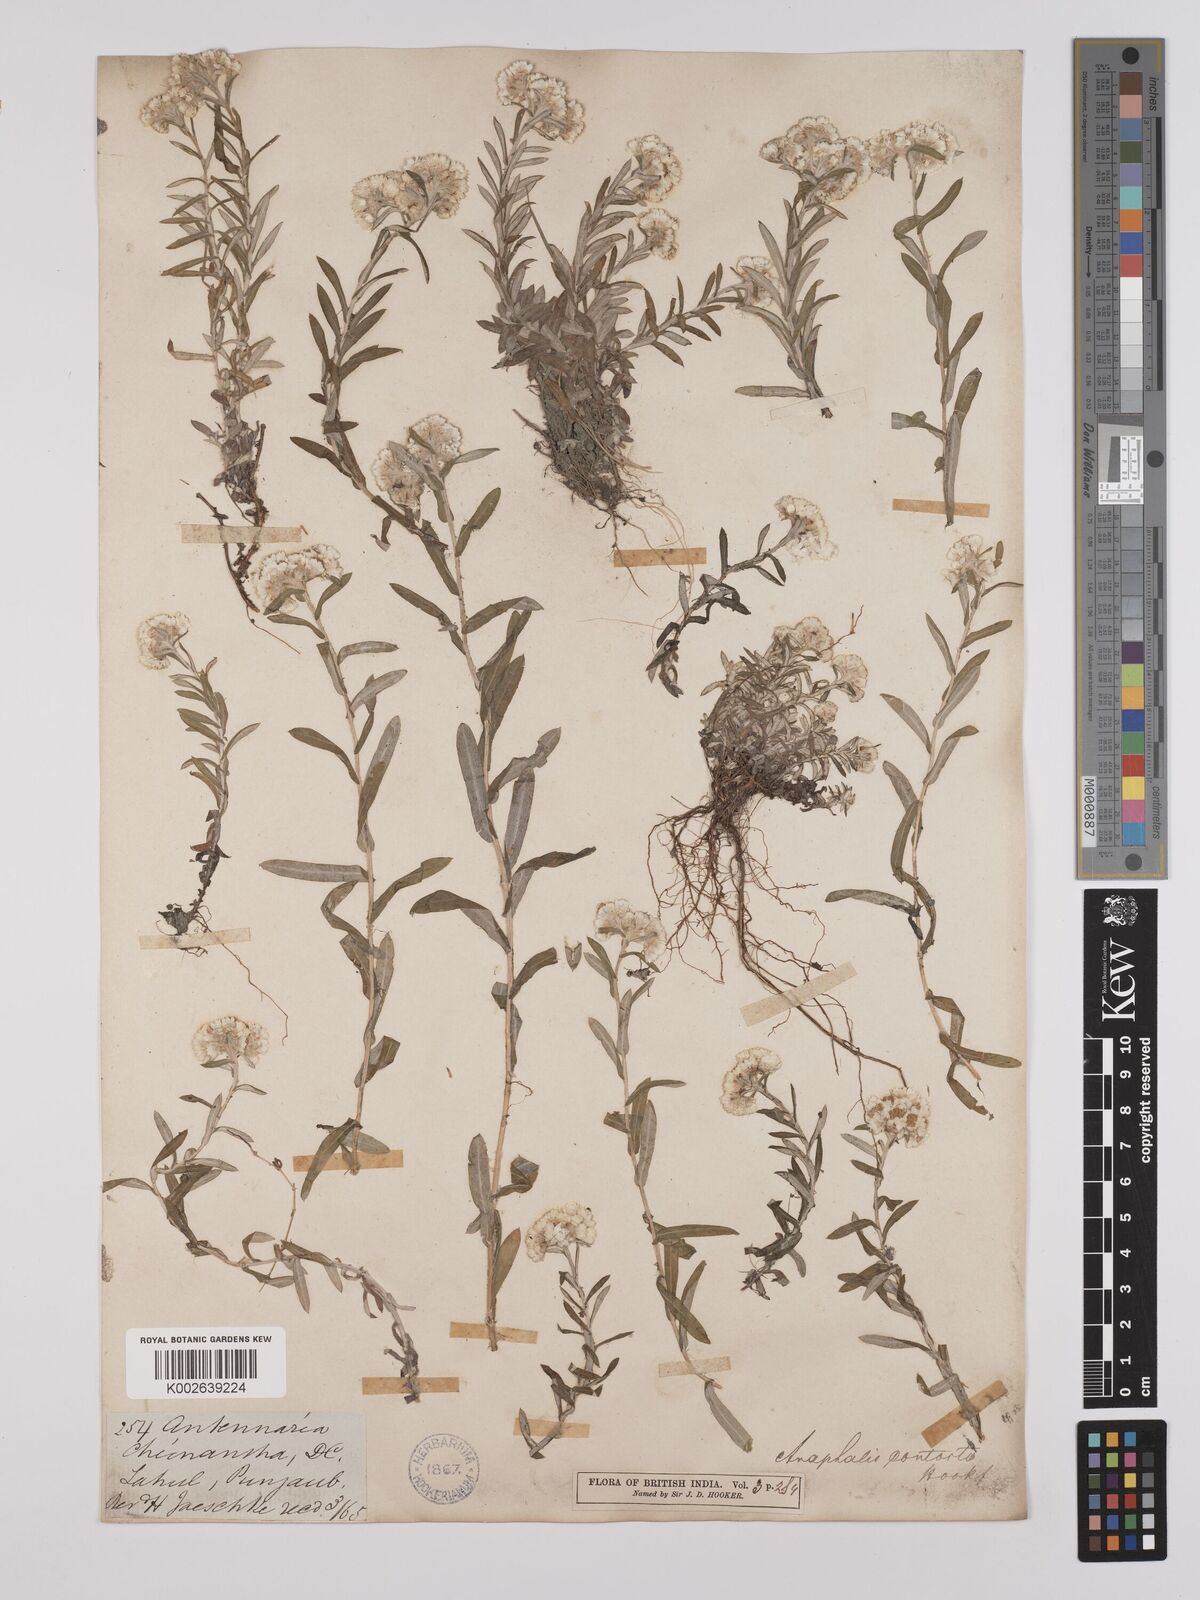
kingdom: Plantae
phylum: Tracheophyta
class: Magnoliopsida
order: Asterales
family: Asteraceae
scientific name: Asteraceae
